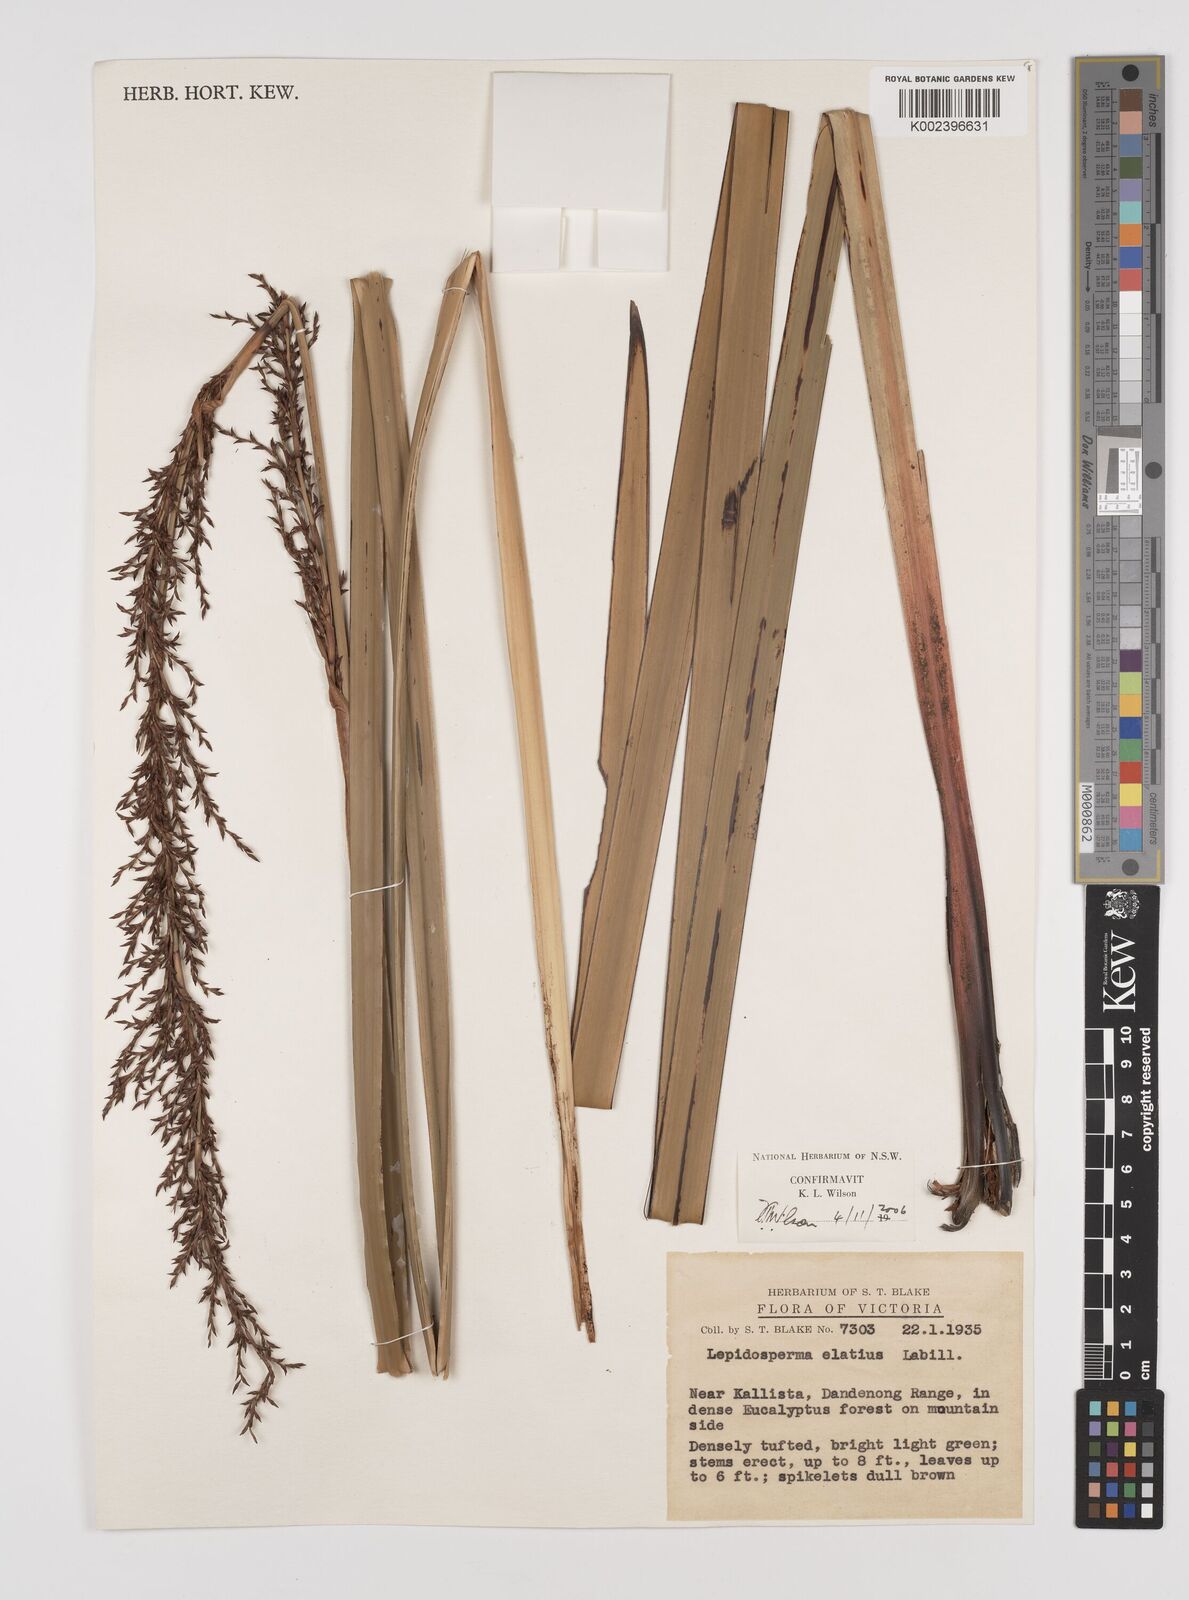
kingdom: Plantae
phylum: Tracheophyta
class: Liliopsida
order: Poales
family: Cyperaceae
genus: Lepidosperma
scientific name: Lepidosperma elatius
